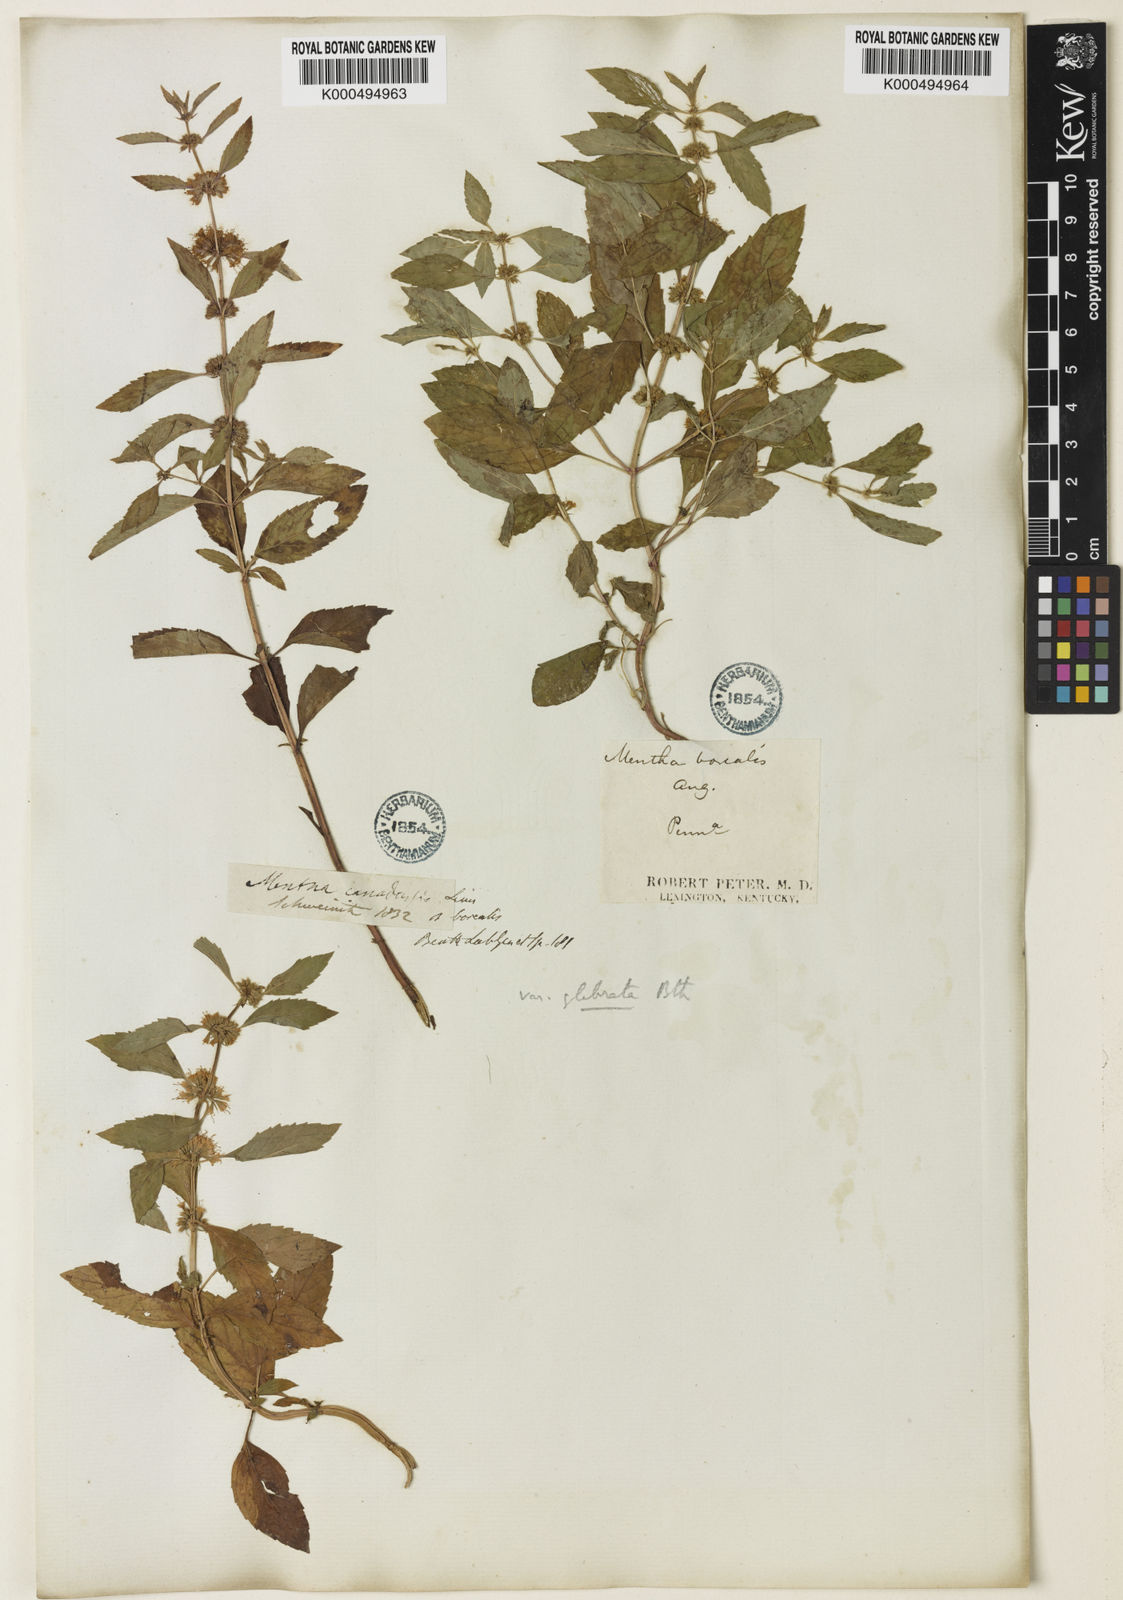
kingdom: Plantae
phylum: Tracheophyta
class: Magnoliopsida
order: Lamiales
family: Lamiaceae
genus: Mentha
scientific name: Mentha canadensis
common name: American corn mint
